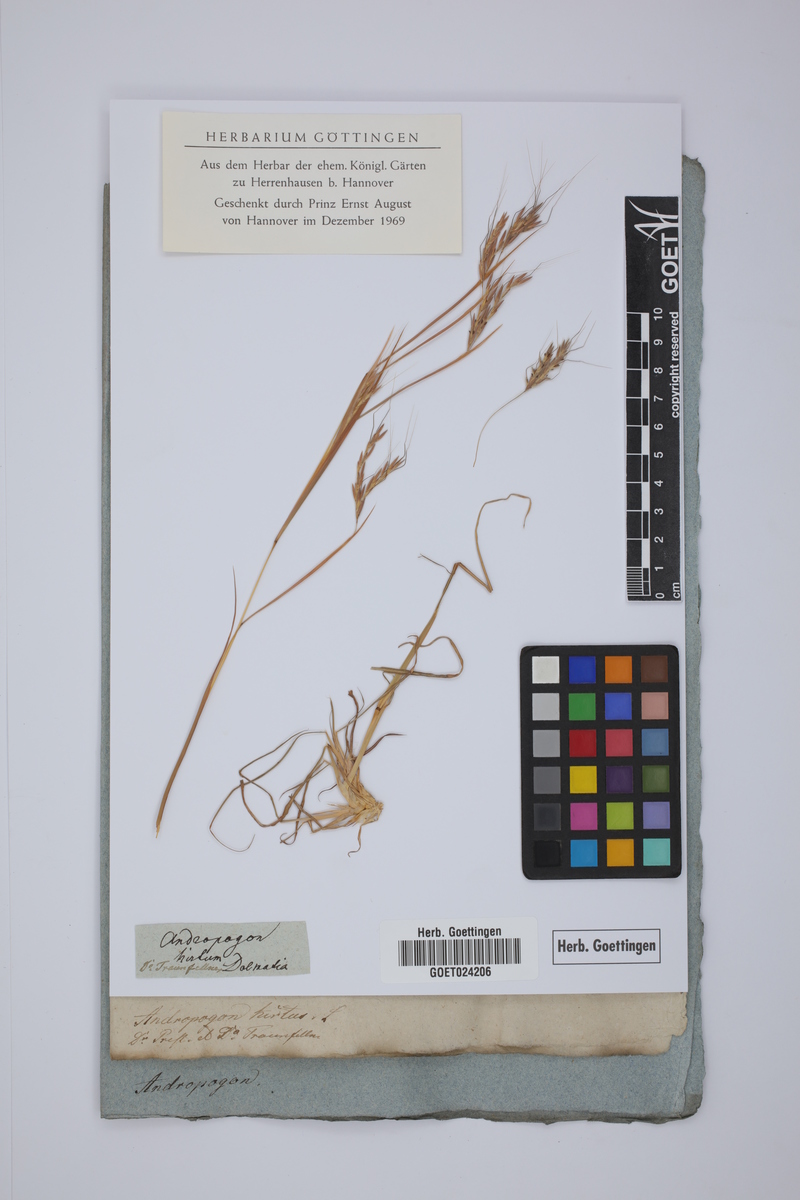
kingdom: Plantae
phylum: Tracheophyta
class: Liliopsida
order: Poales
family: Poaceae
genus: Hyparrhenia
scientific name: Hyparrhenia hirta
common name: Thatching grass
